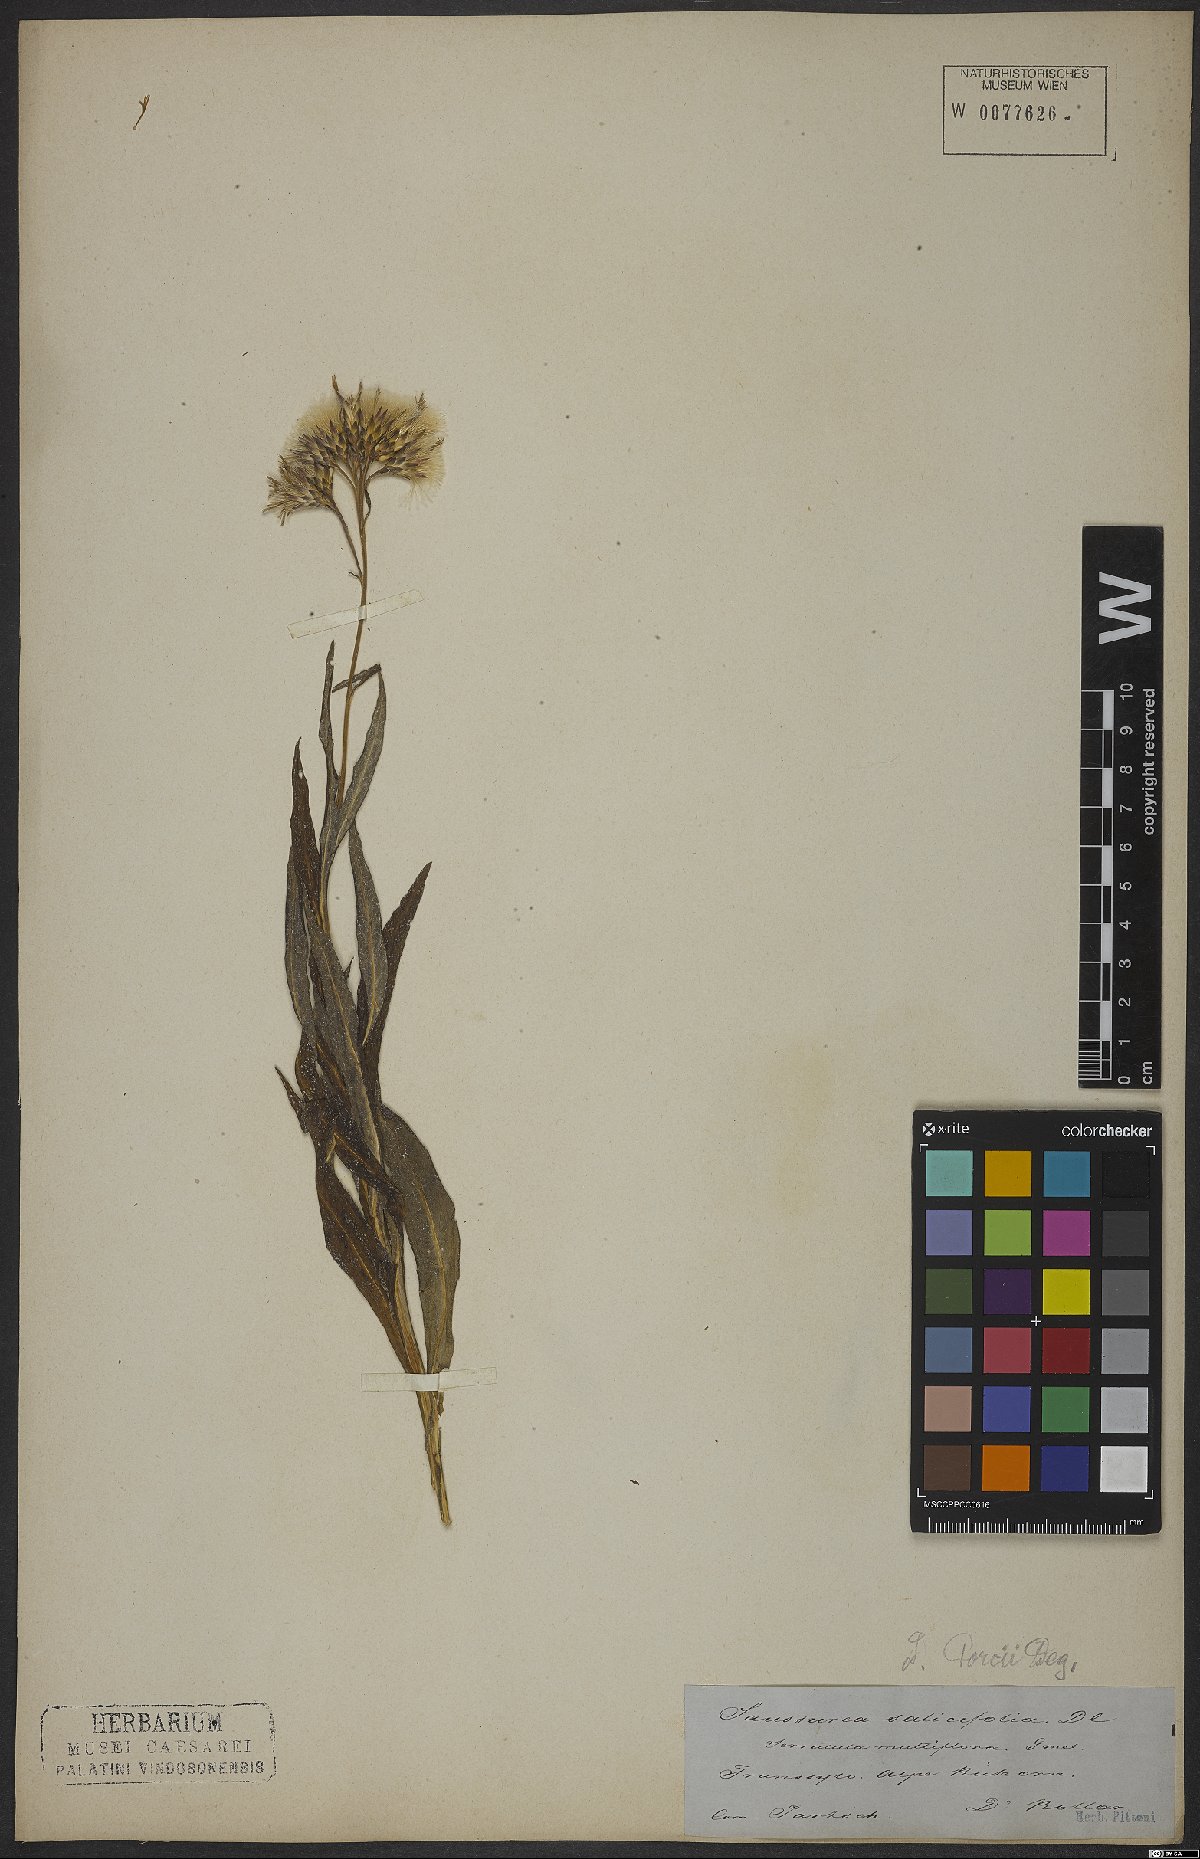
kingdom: Plantae
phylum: Tracheophyta
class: Magnoliopsida
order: Asterales
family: Asteraceae
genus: Saussurea
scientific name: Saussurea porcii
